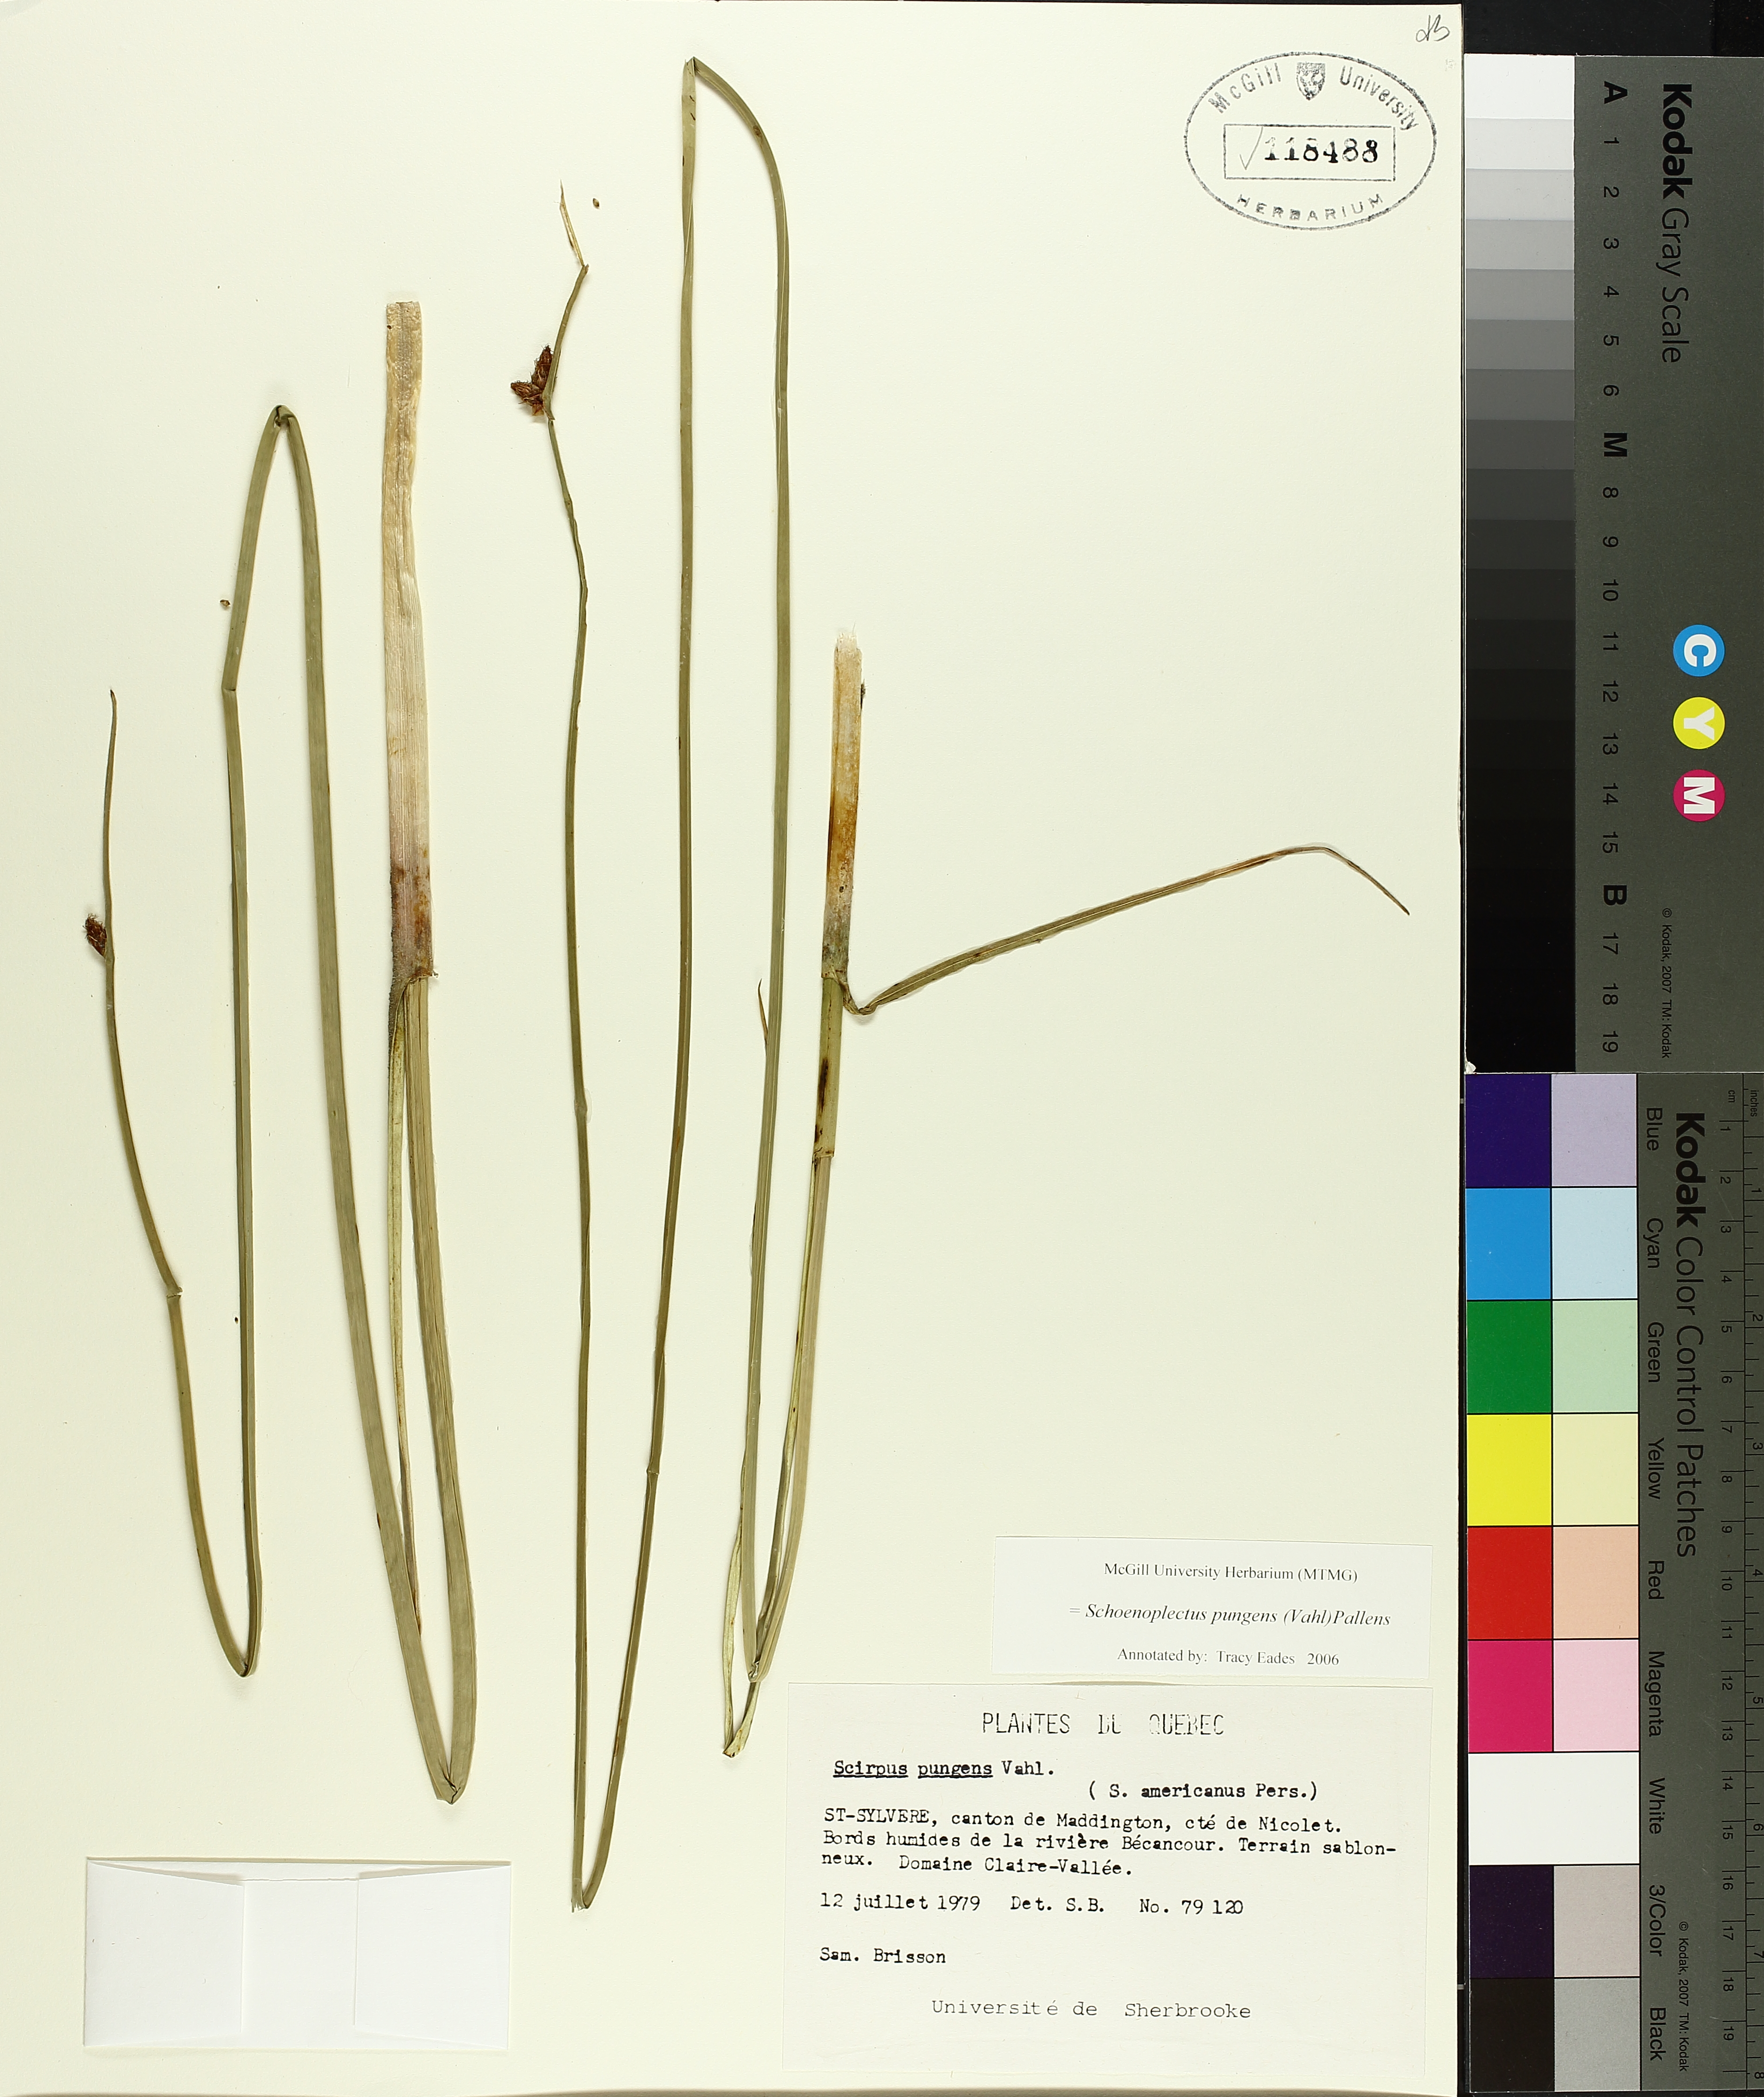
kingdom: Plantae
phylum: Tracheophyta
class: Liliopsida
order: Poales
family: Cyperaceae
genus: Schoenoplectus
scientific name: Schoenoplectus pungens
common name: Sharp club-rush
